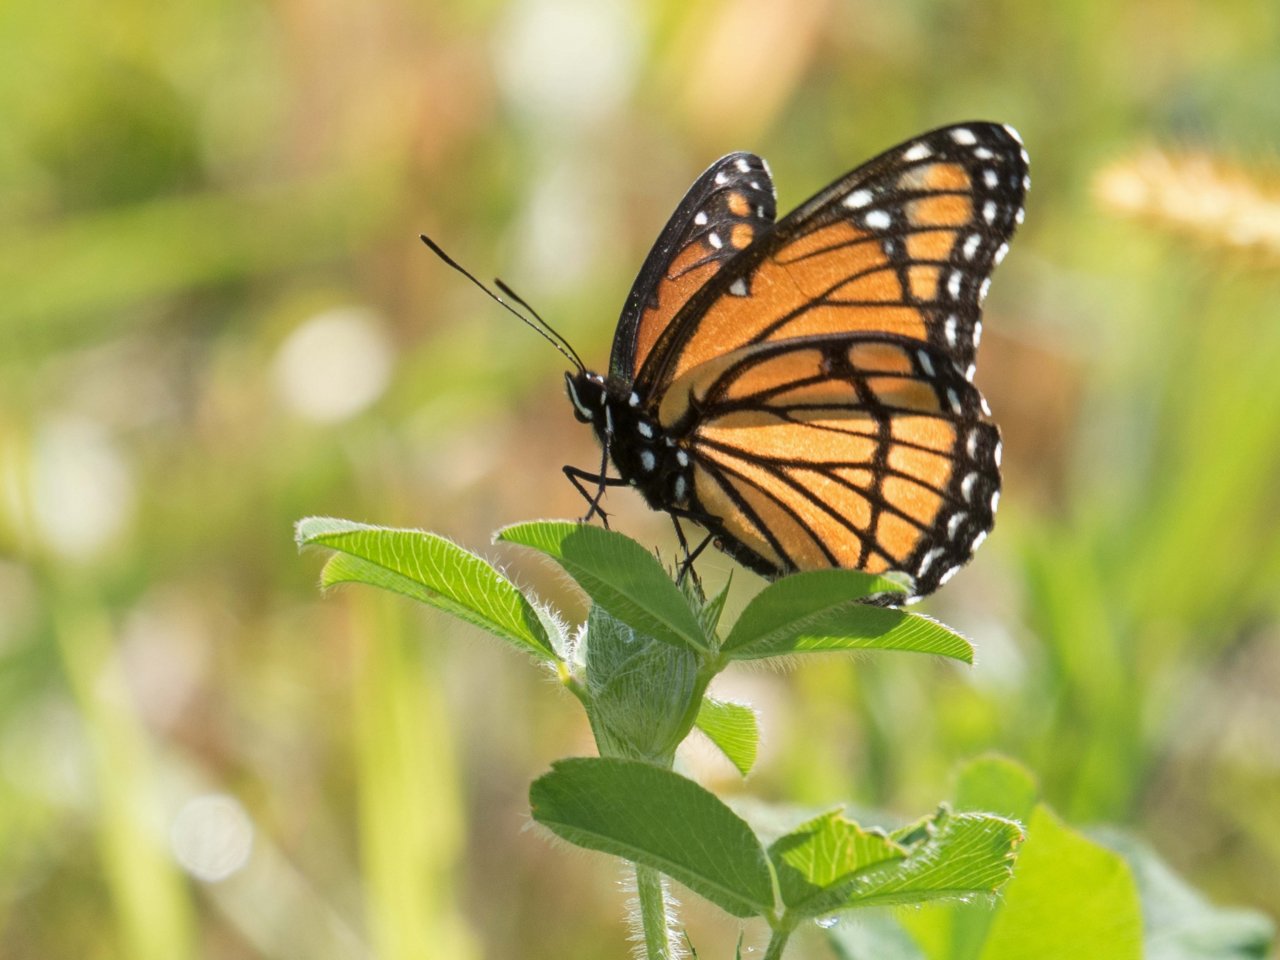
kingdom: Animalia
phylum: Arthropoda
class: Insecta
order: Lepidoptera
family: Nymphalidae
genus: Limenitis
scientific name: Limenitis archippus
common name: Viceroy
